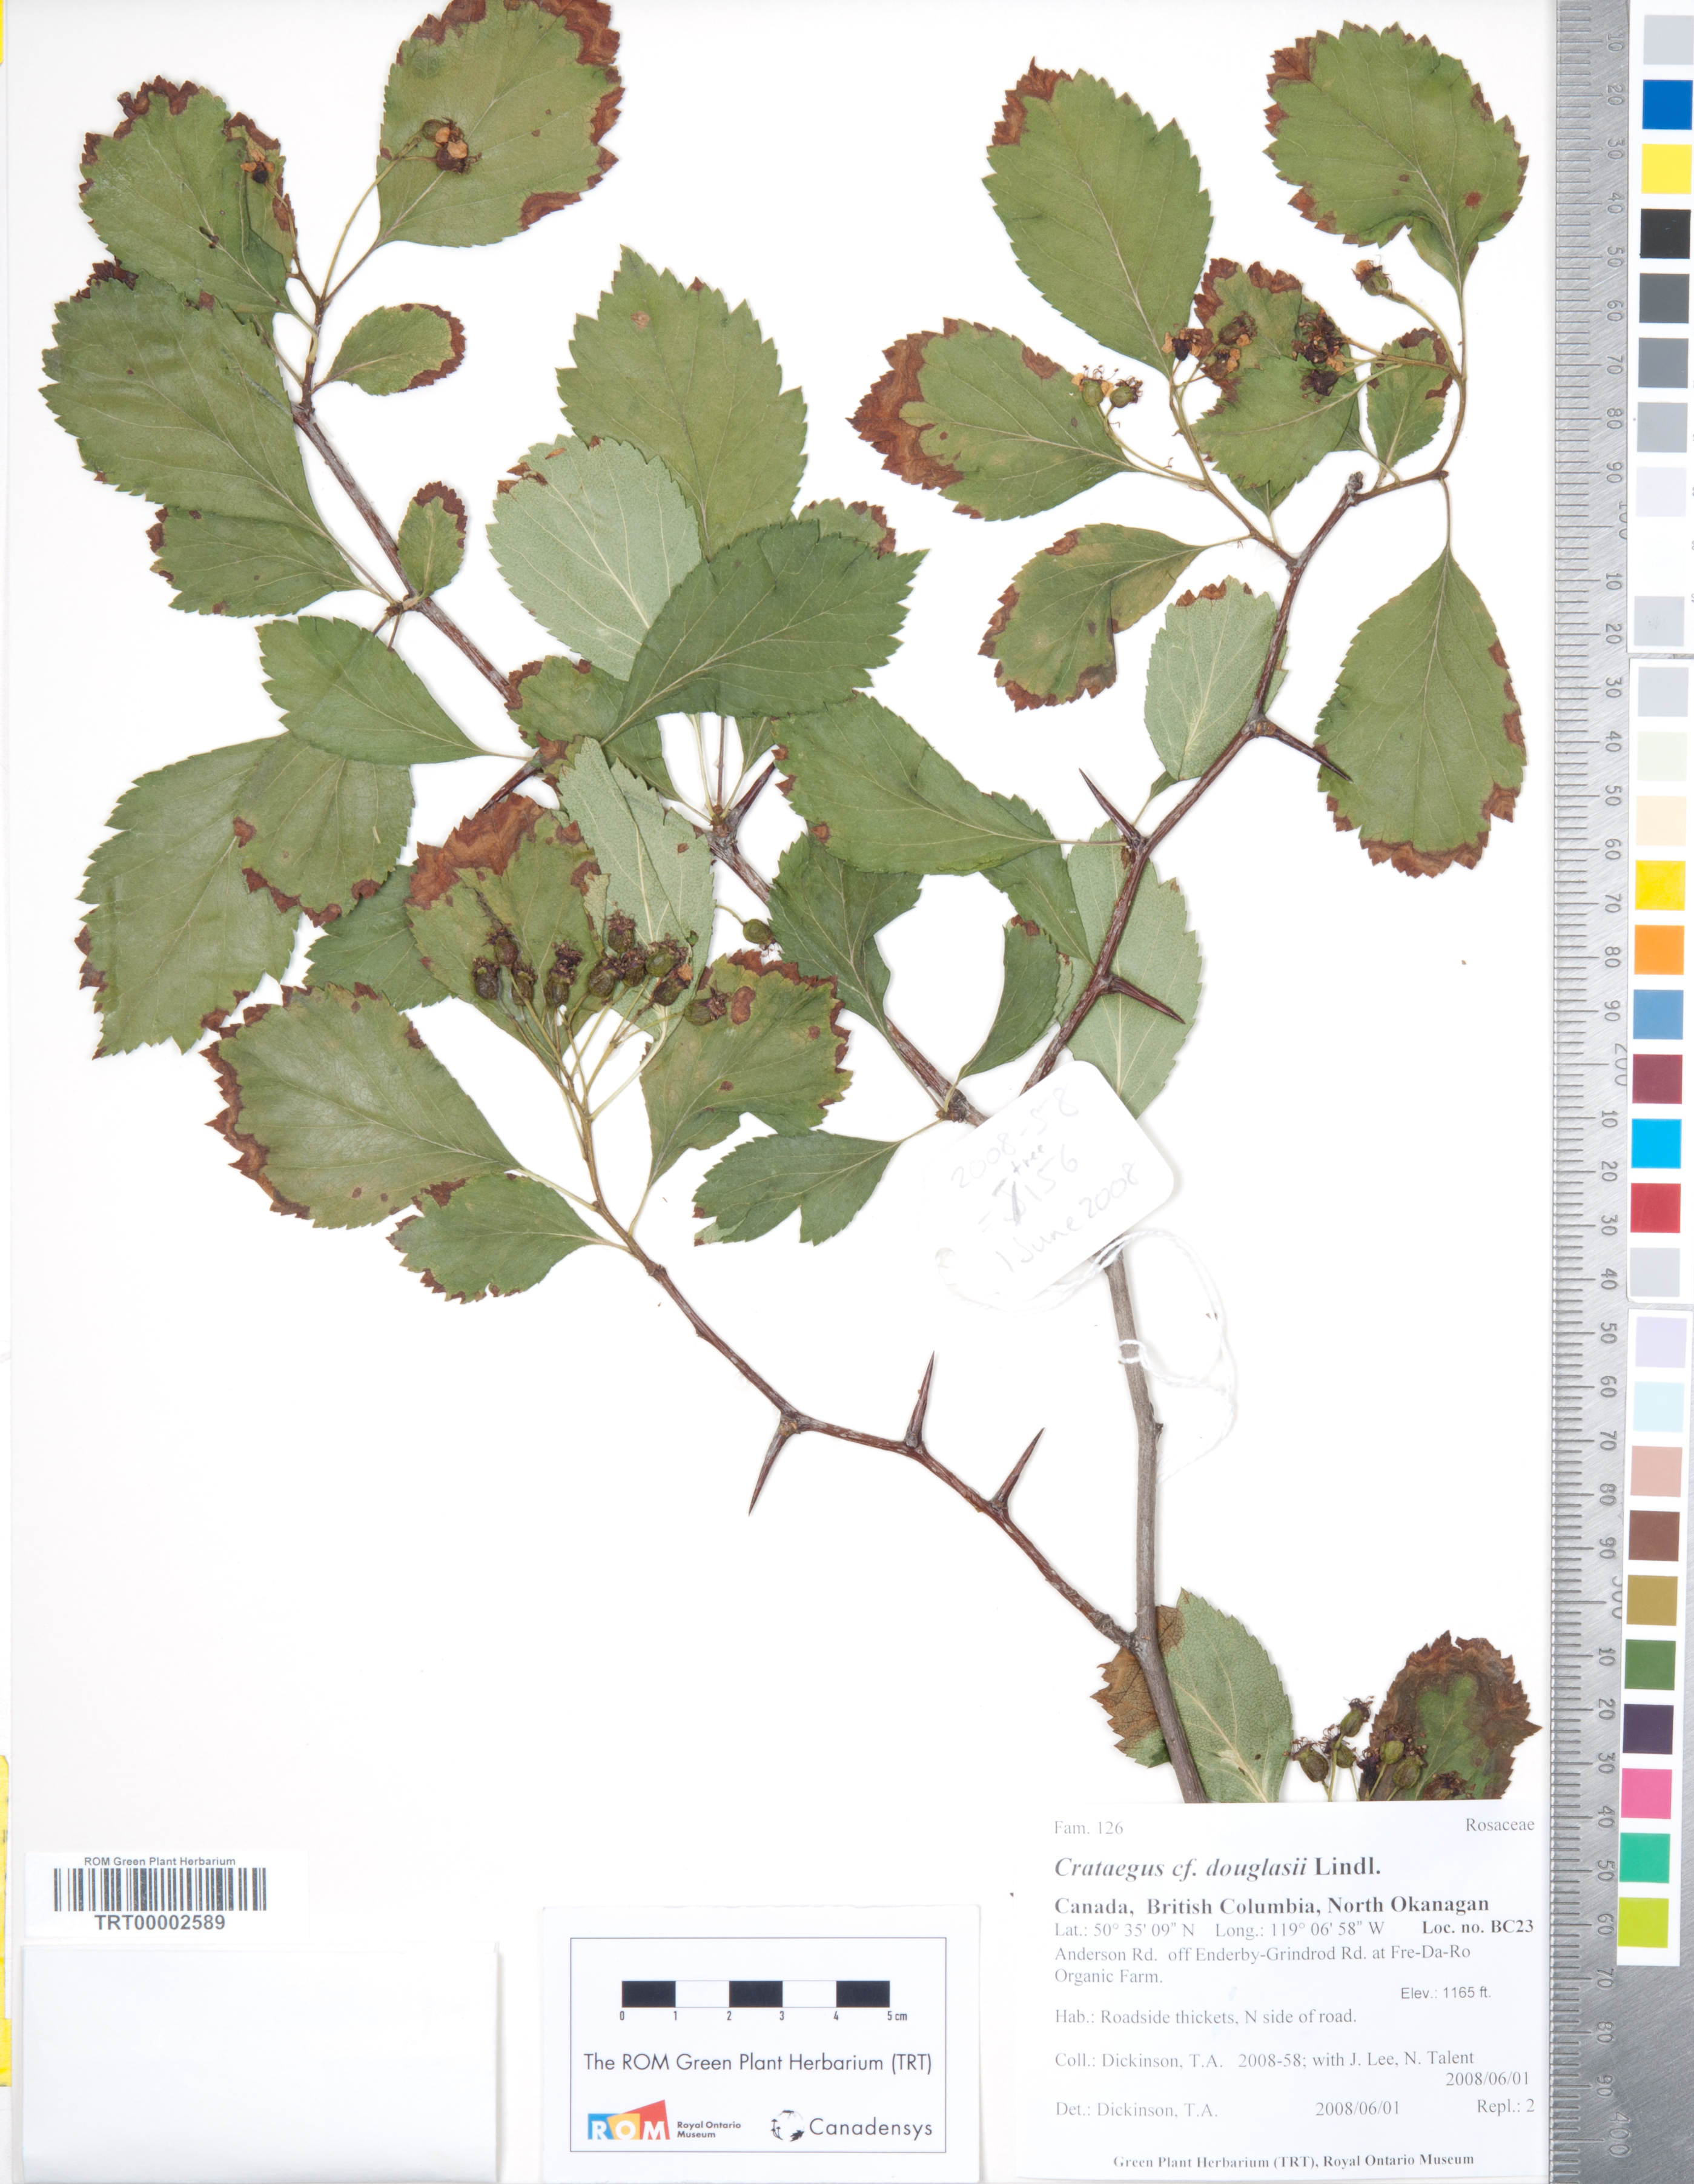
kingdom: Plantae
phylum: Tracheophyta
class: Magnoliopsida
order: Rosales
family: Rosaceae
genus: Crataegus
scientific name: Crataegus douglasii
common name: Black hawthorn
